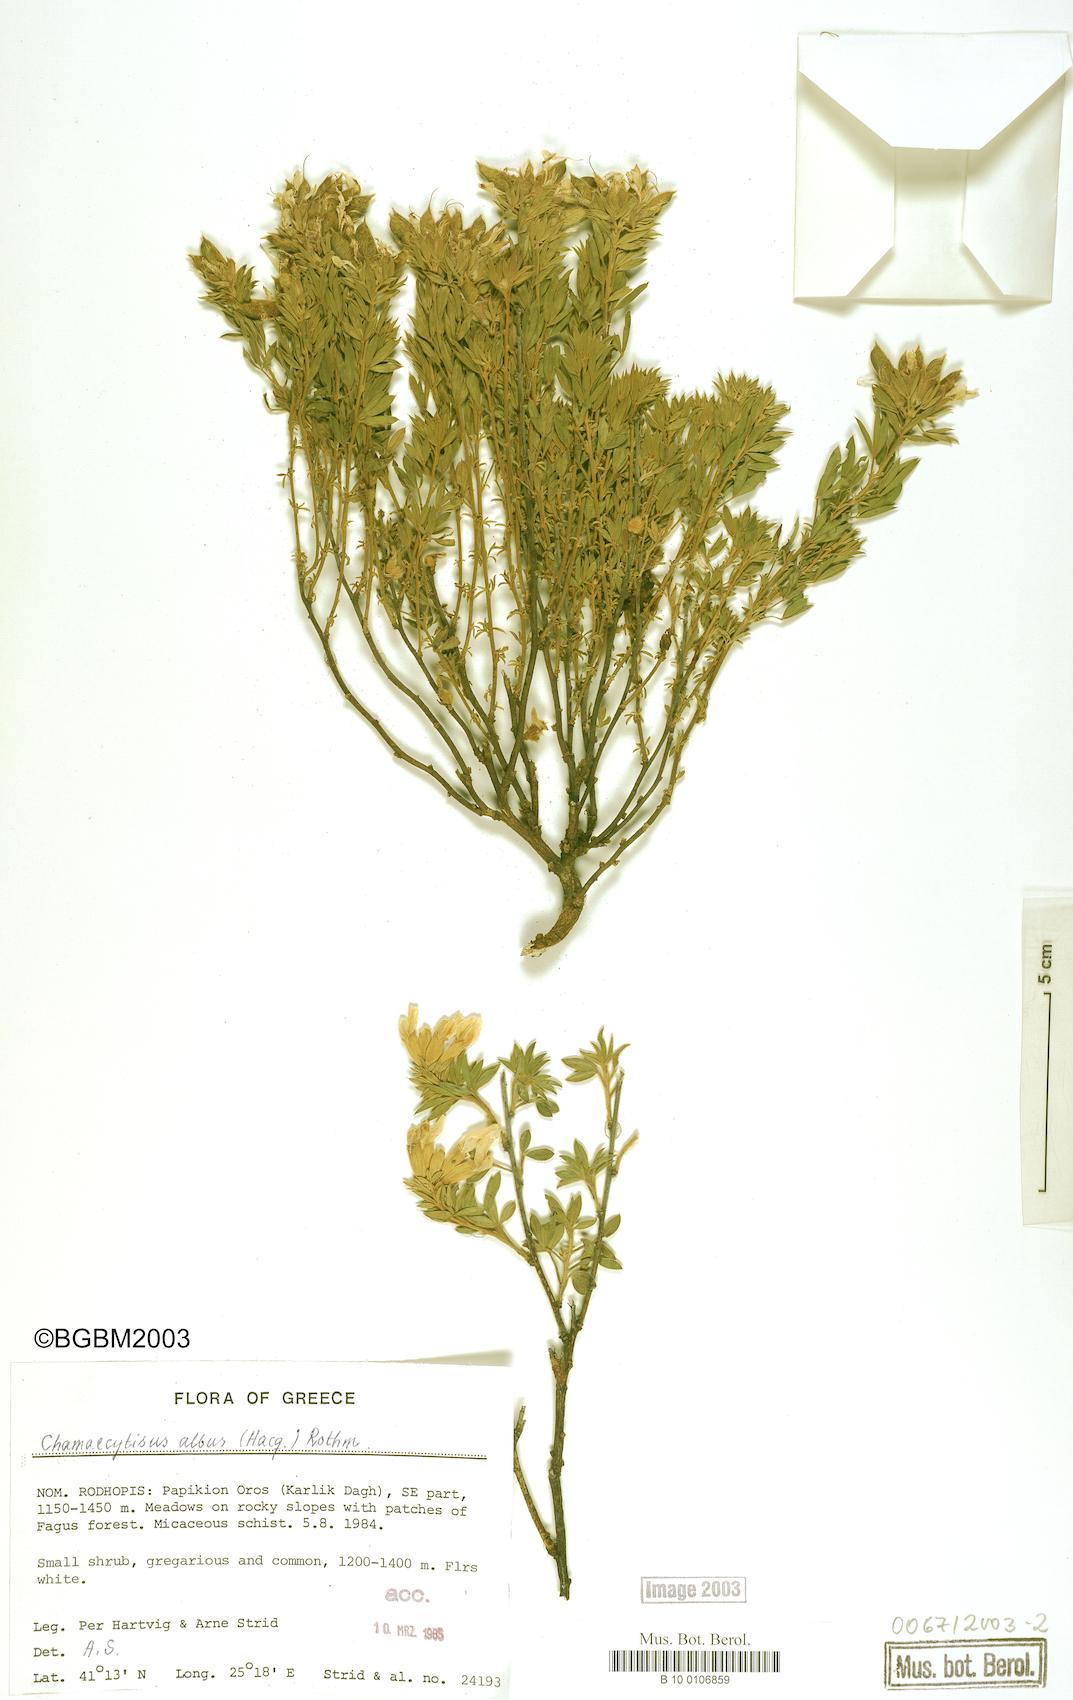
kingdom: Plantae
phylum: Tracheophyta
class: Magnoliopsida
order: Fabales
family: Fabaceae
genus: Chamaecytisus
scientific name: Chamaecytisus albus
